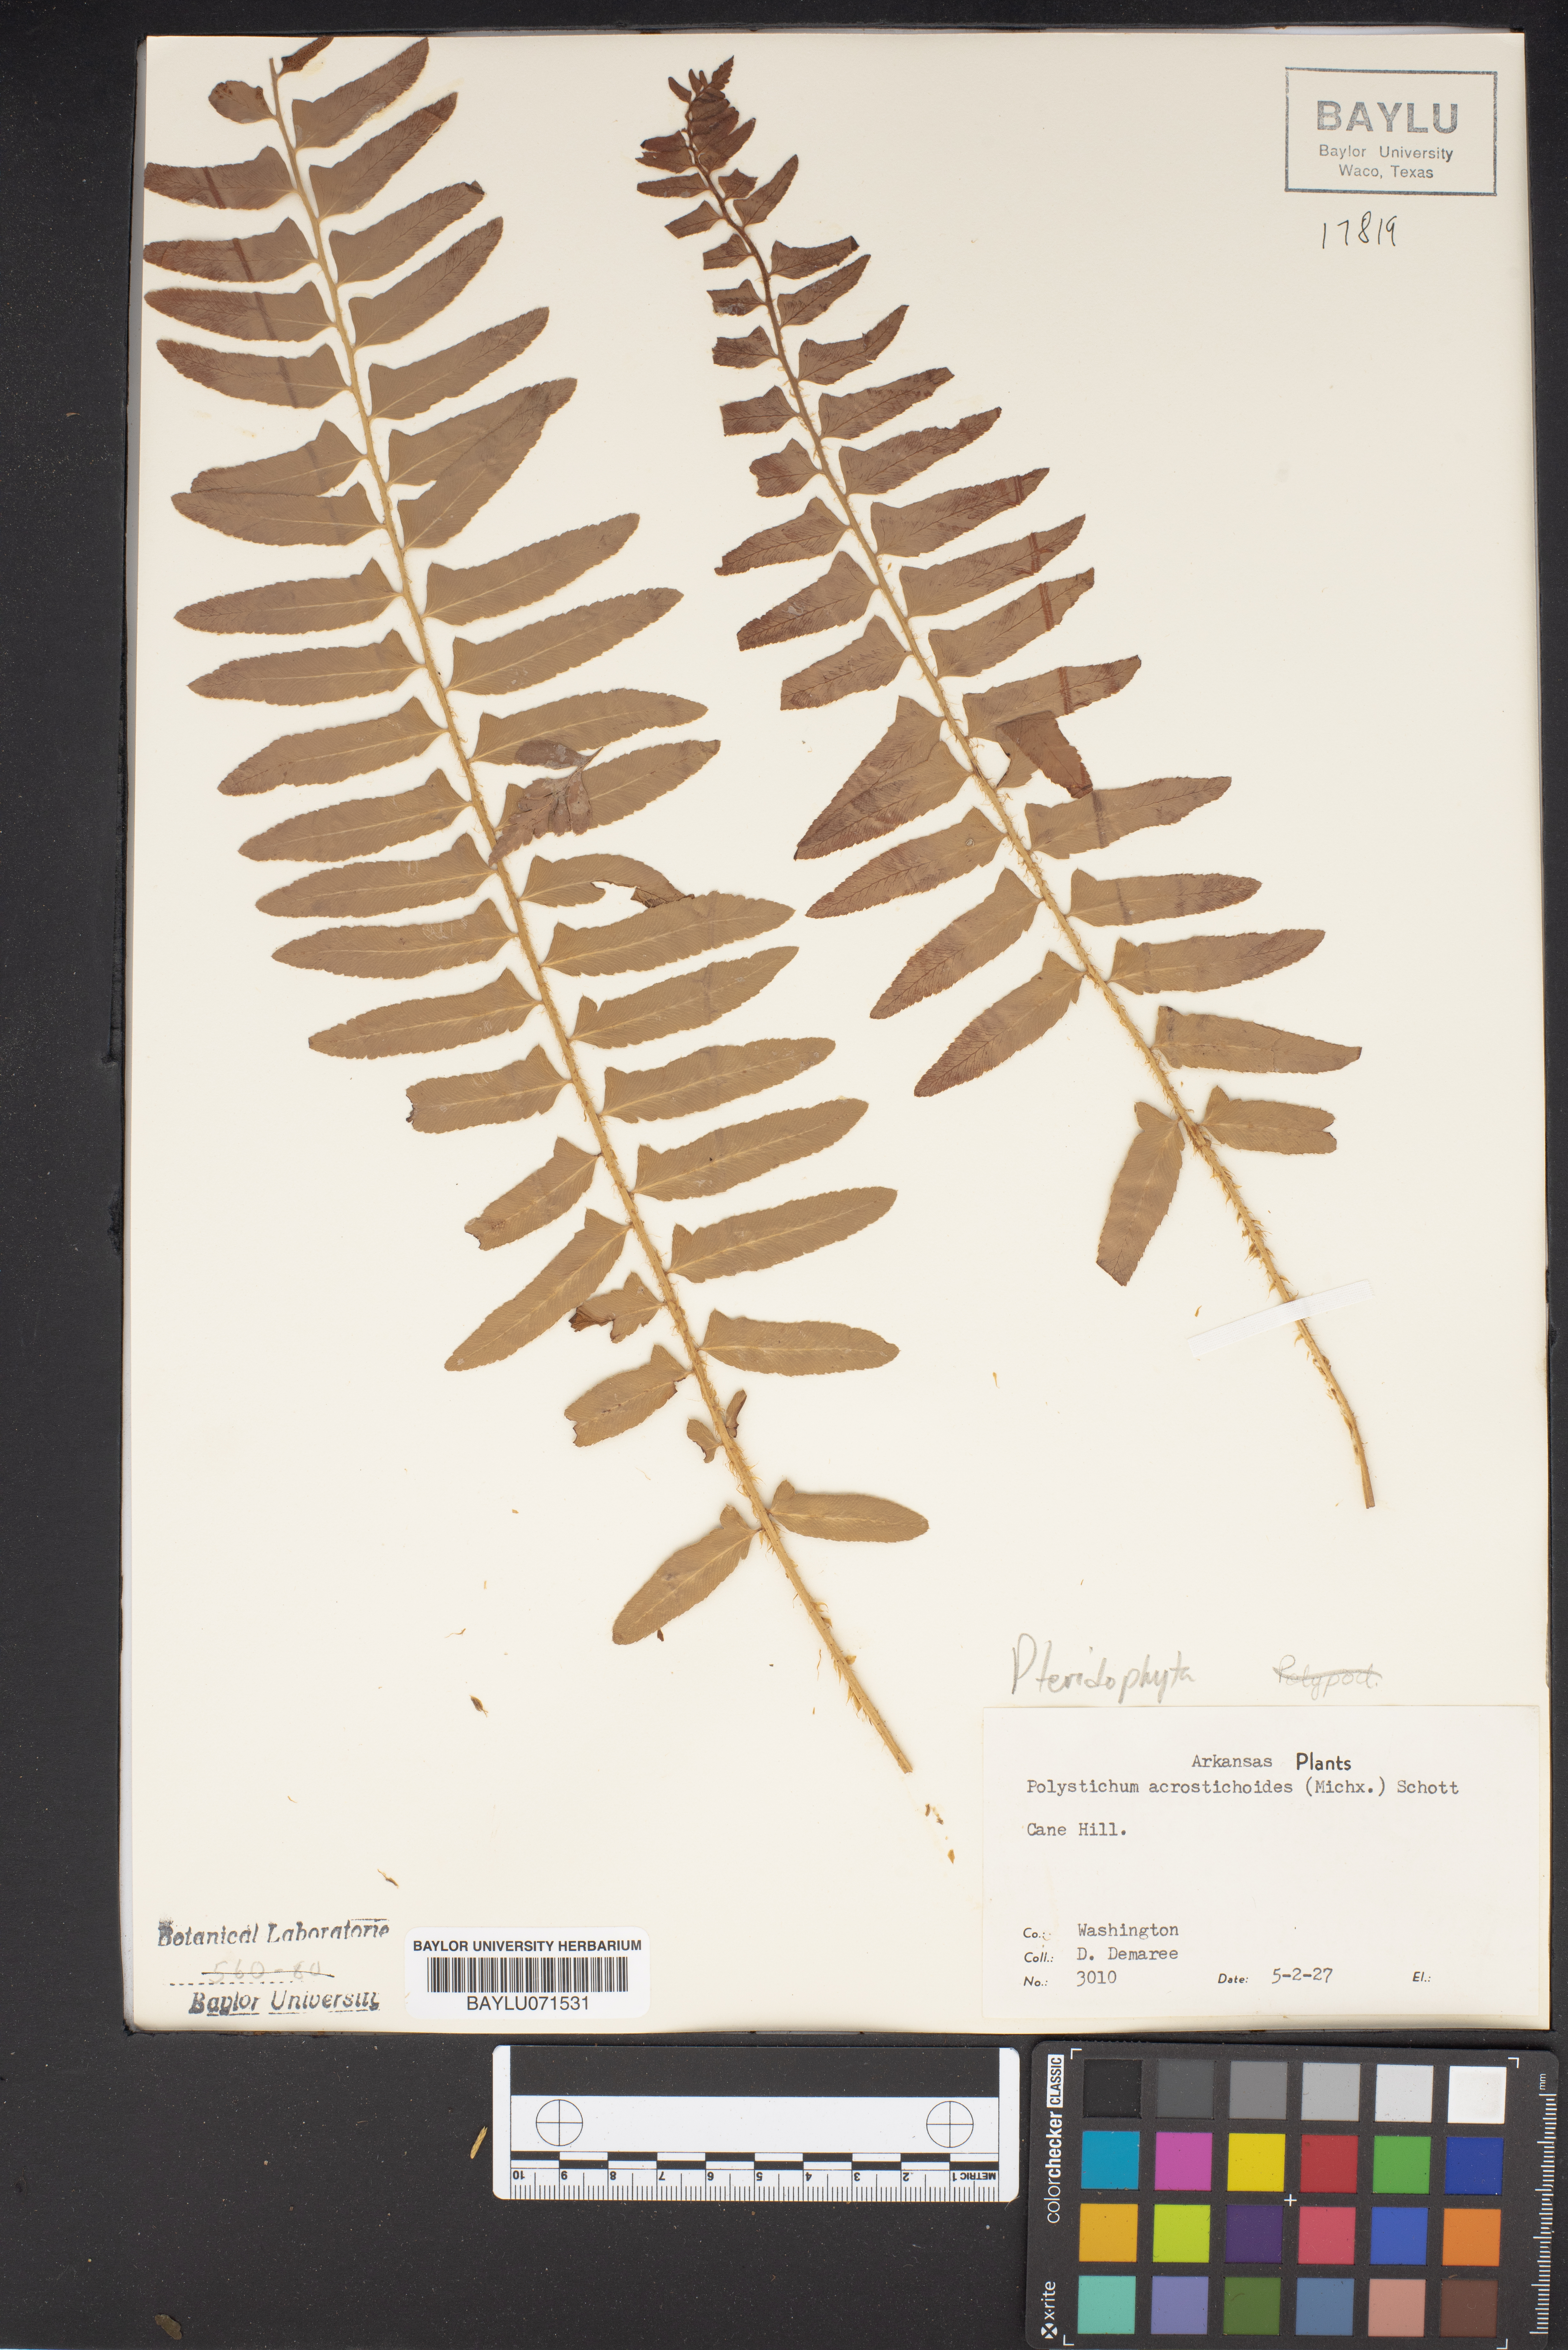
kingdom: Plantae
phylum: Tracheophyta
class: Polypodiopsida
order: Polypodiales
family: Dryopteridaceae
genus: Polystichum
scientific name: Polystichum acrostichoides
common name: Christmas fern
